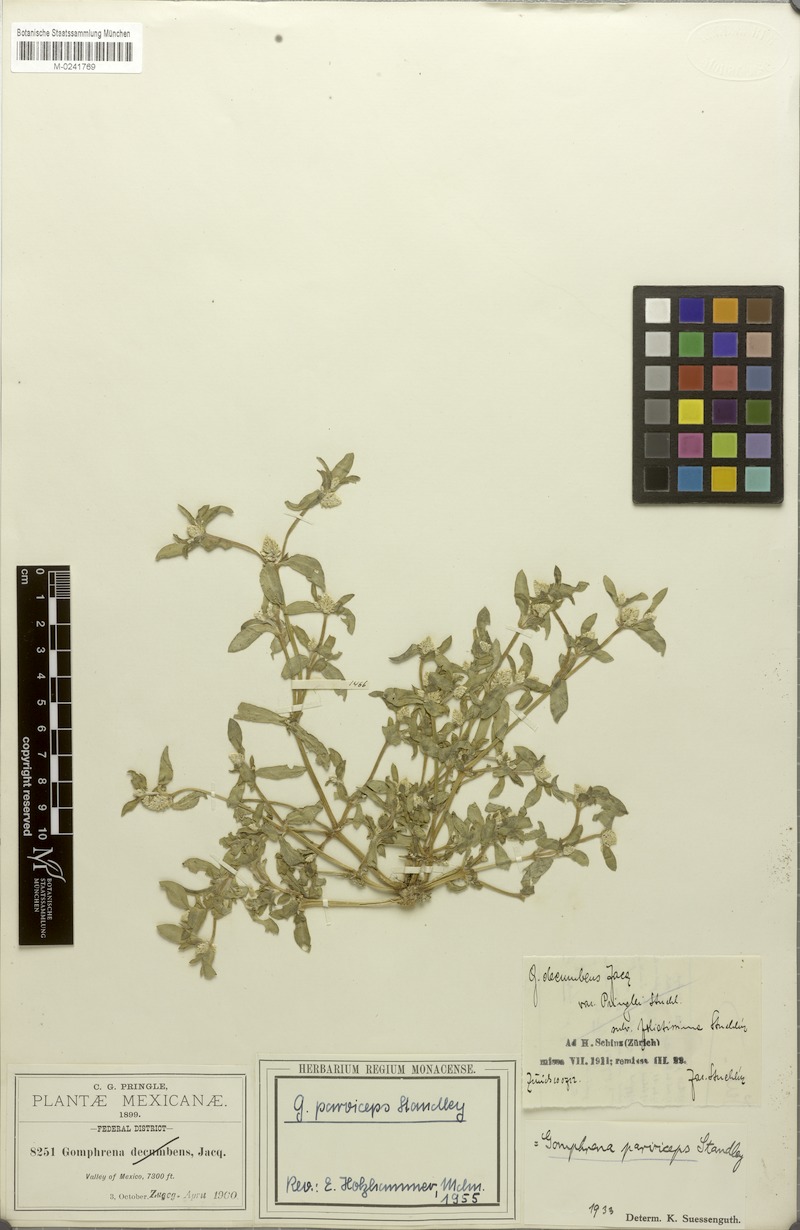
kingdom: Plantae
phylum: Tracheophyta
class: Magnoliopsida
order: Caryophyllales
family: Amaranthaceae
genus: Gomphrena
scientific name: Gomphrena parviceps
